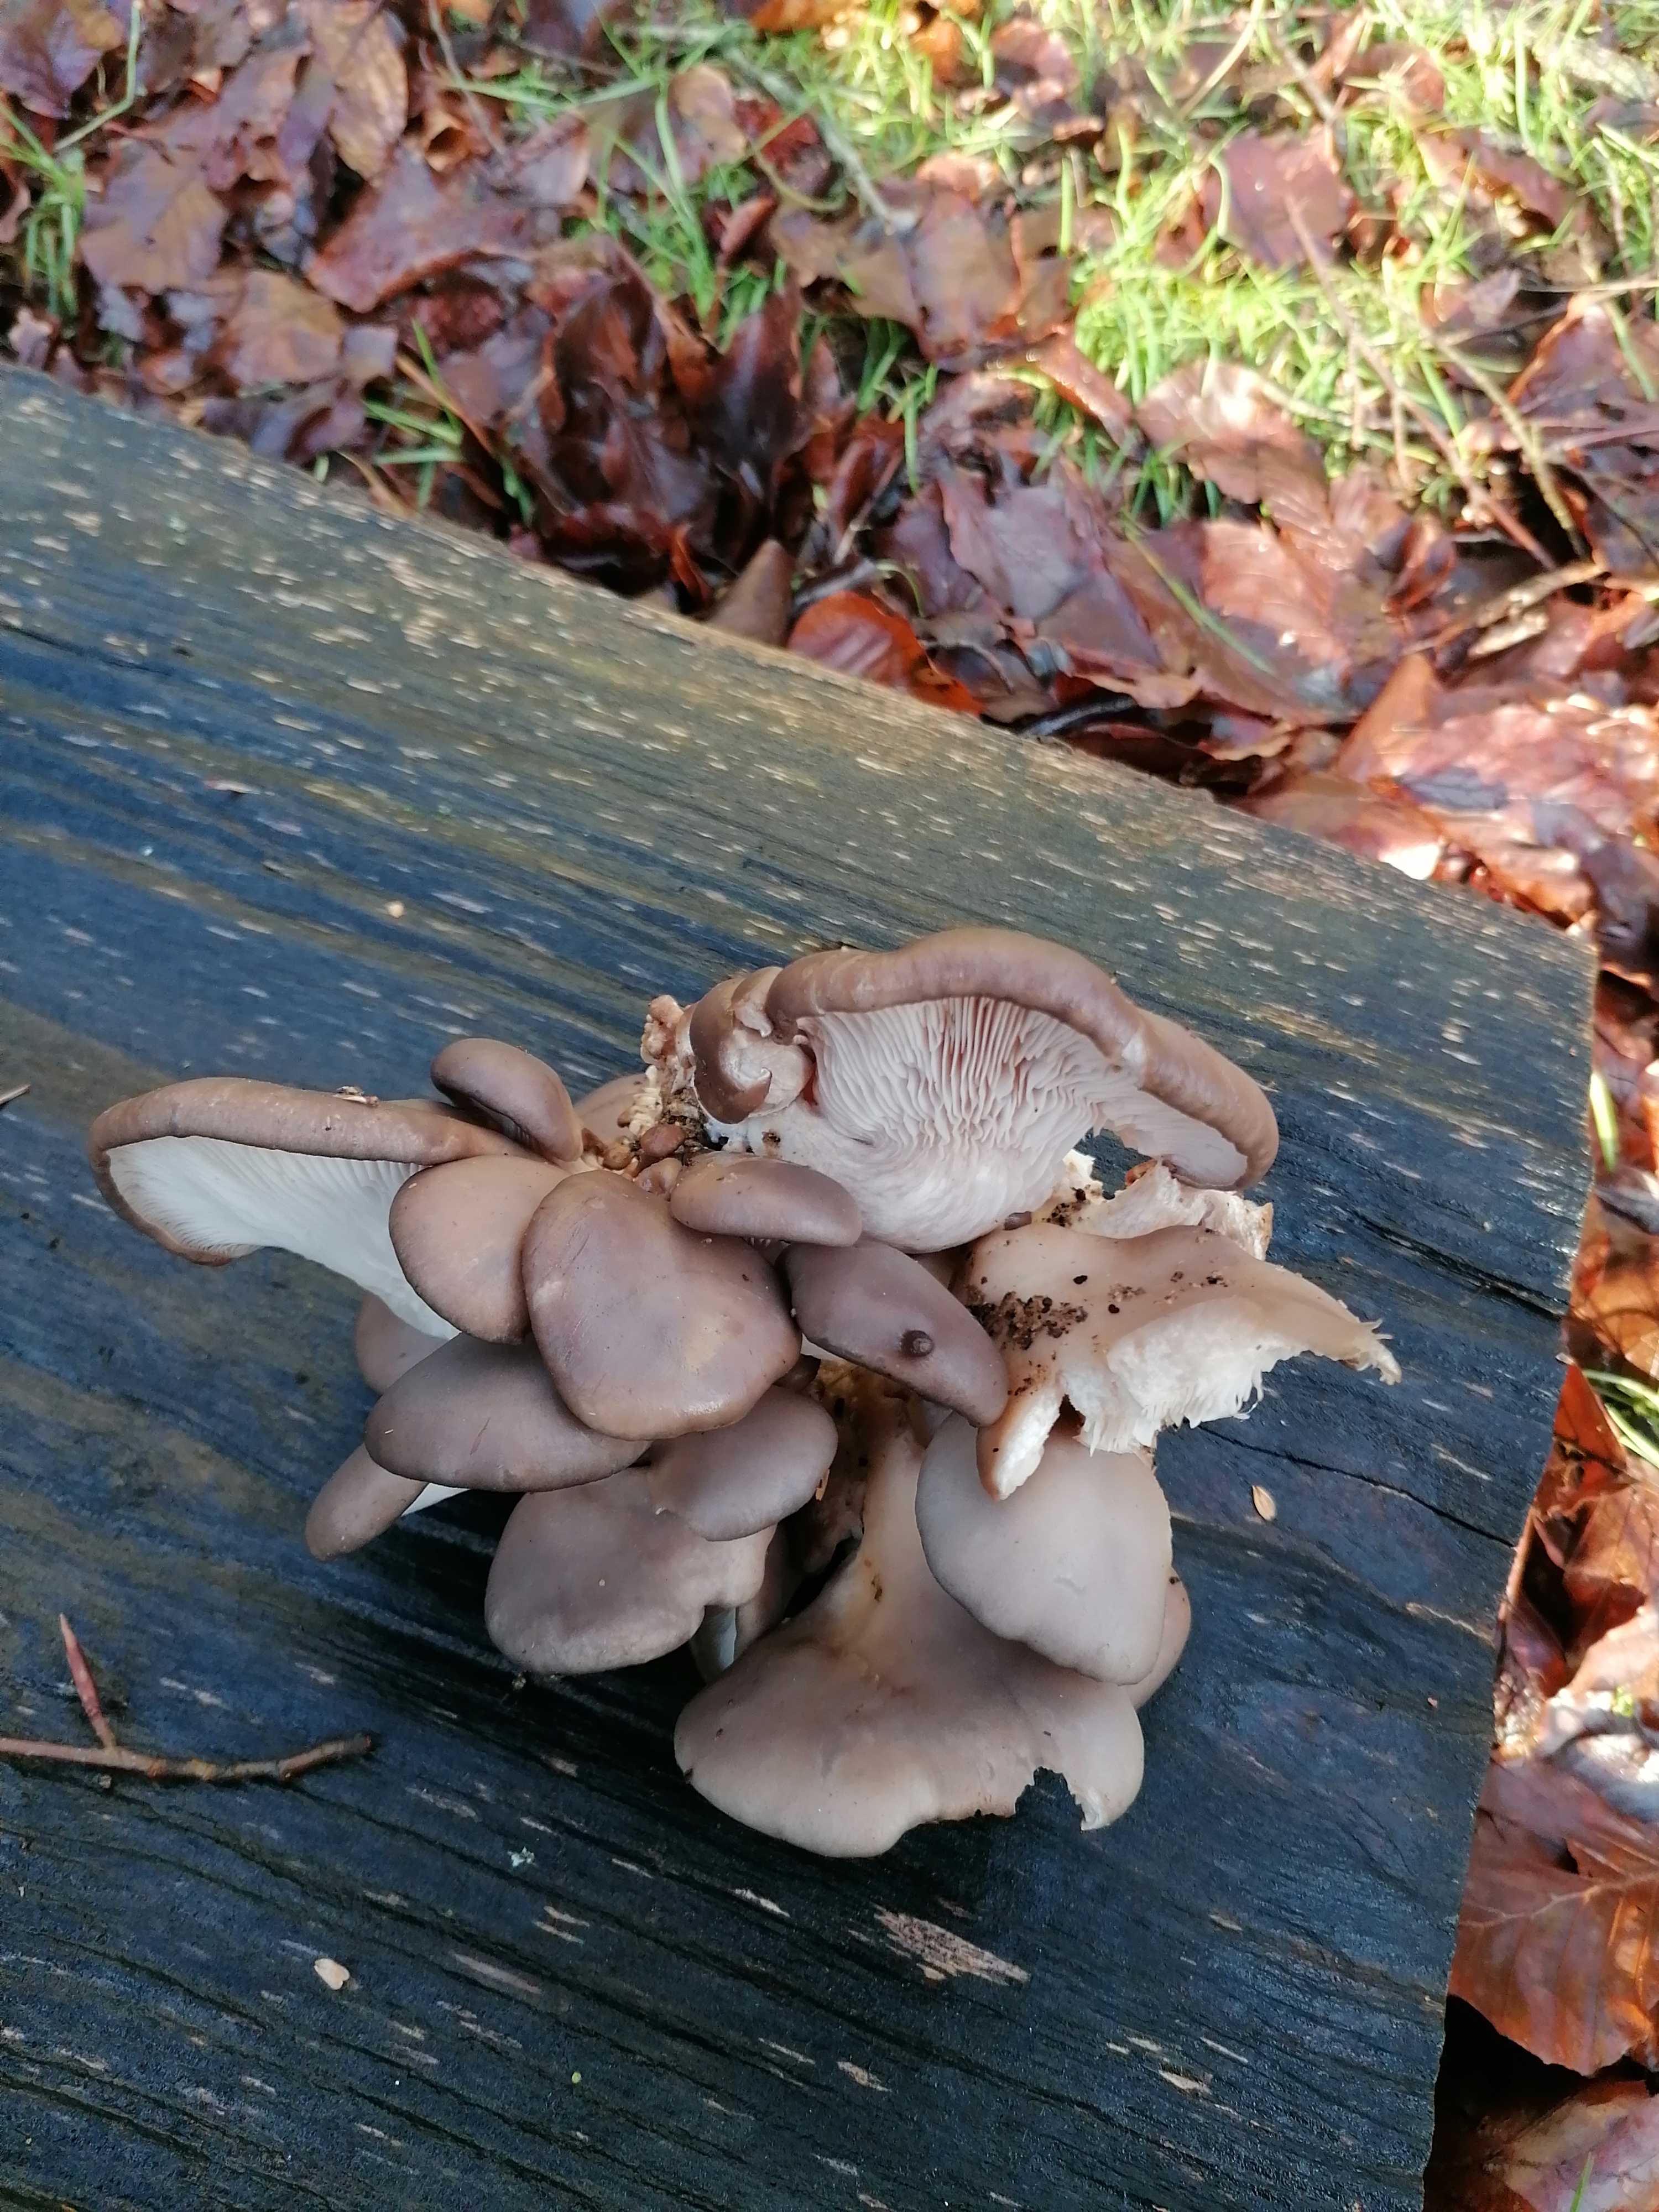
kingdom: Fungi
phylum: Basidiomycota
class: Agaricomycetes
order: Agaricales
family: Pleurotaceae
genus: Pleurotus
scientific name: Pleurotus ostreatus
